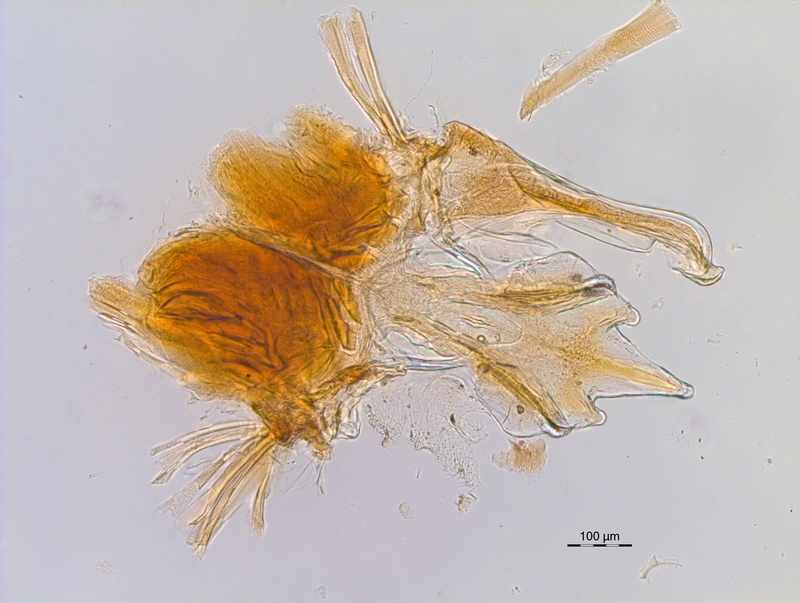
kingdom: Animalia
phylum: Arthropoda
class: Diplopoda
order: Chordeumatida
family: Chordeumatidae
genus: Melogona
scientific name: Melogona broelemanni
